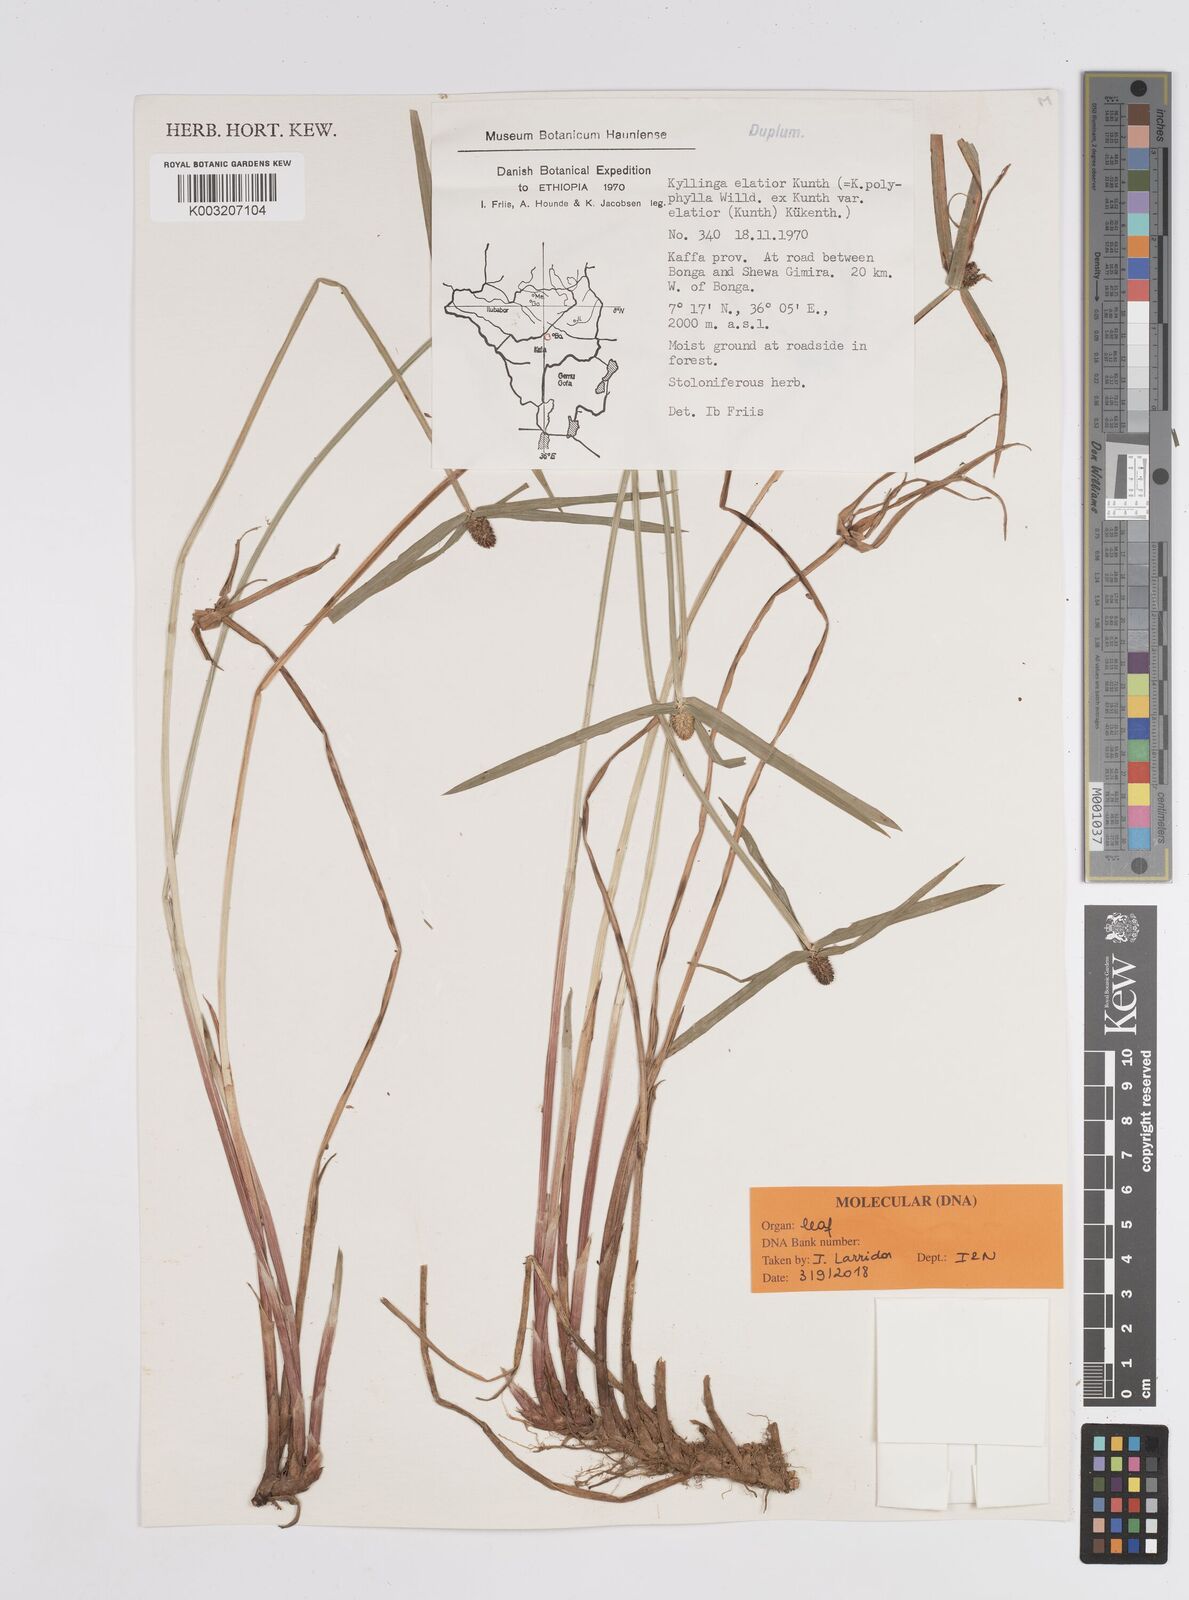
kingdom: Plantae
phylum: Tracheophyta
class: Liliopsida
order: Poales
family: Cyperaceae
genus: Cyperus
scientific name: Cyperus
